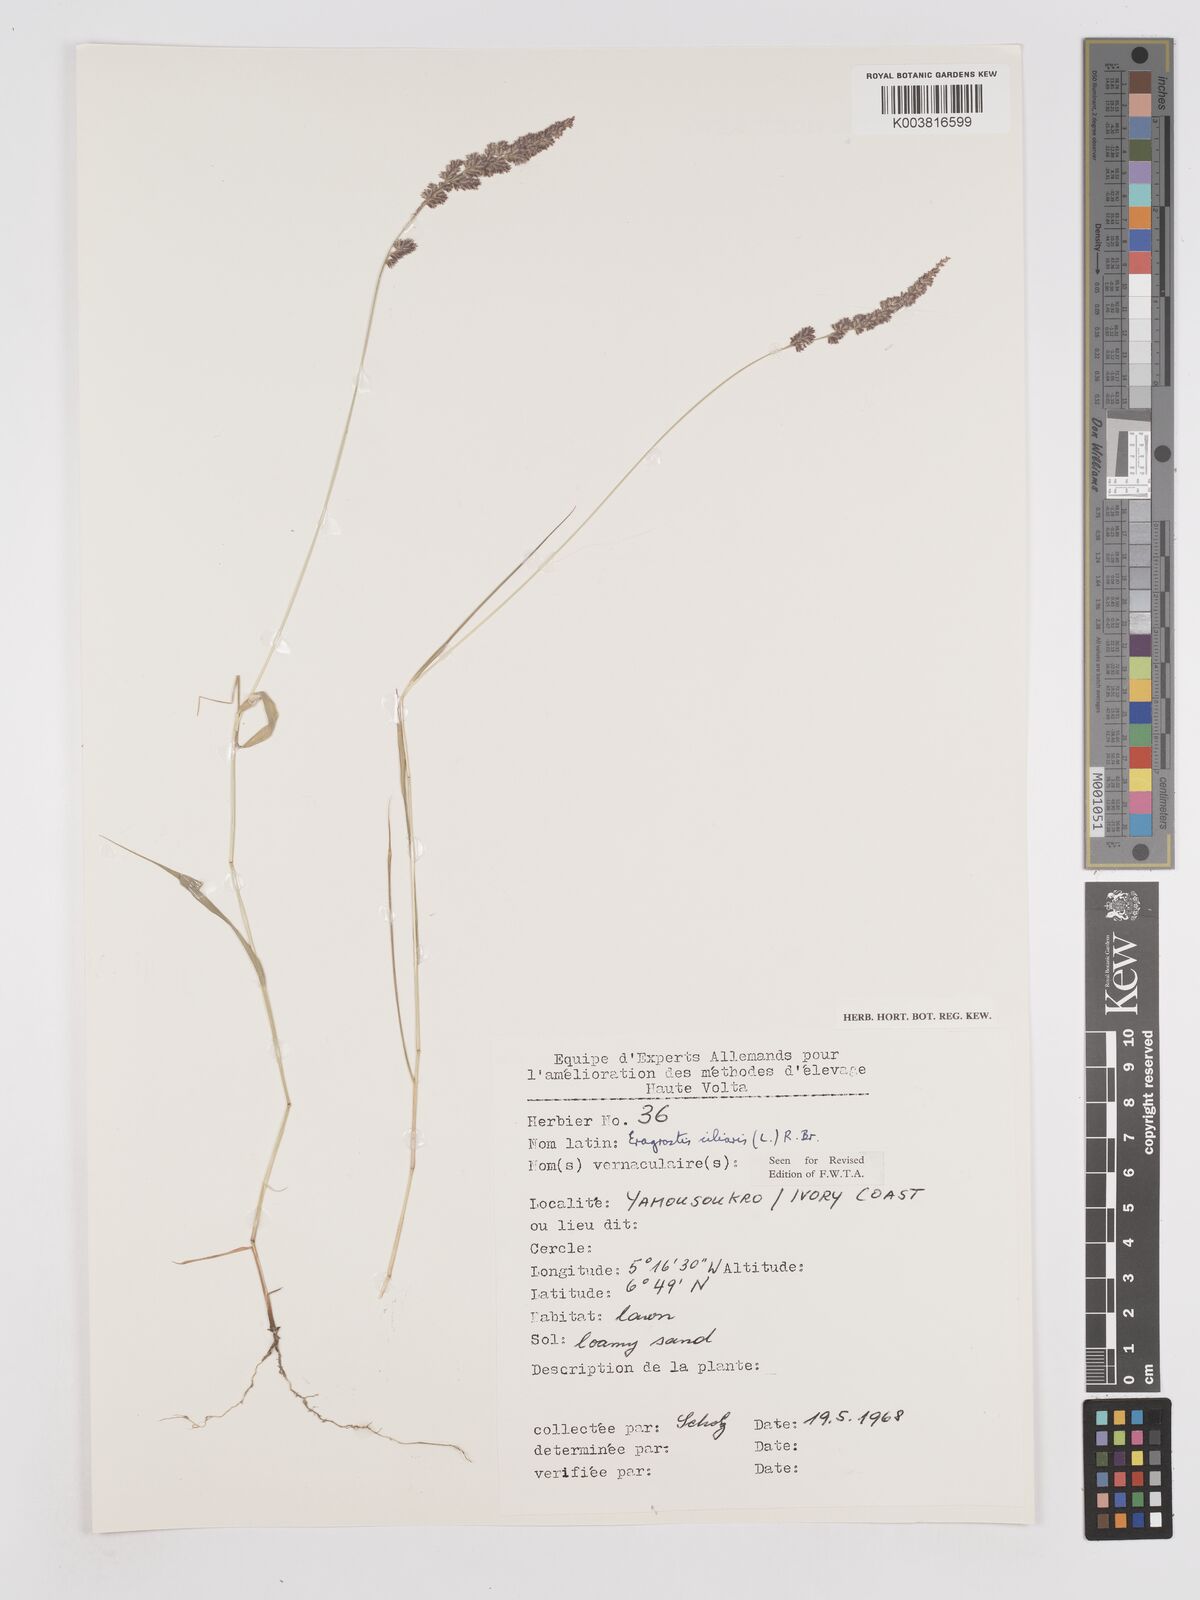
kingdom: Plantae
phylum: Tracheophyta
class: Liliopsida
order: Poales
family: Poaceae
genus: Eragrostis
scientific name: Eragrostis ciliaris
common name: Gophertail lovegrass
